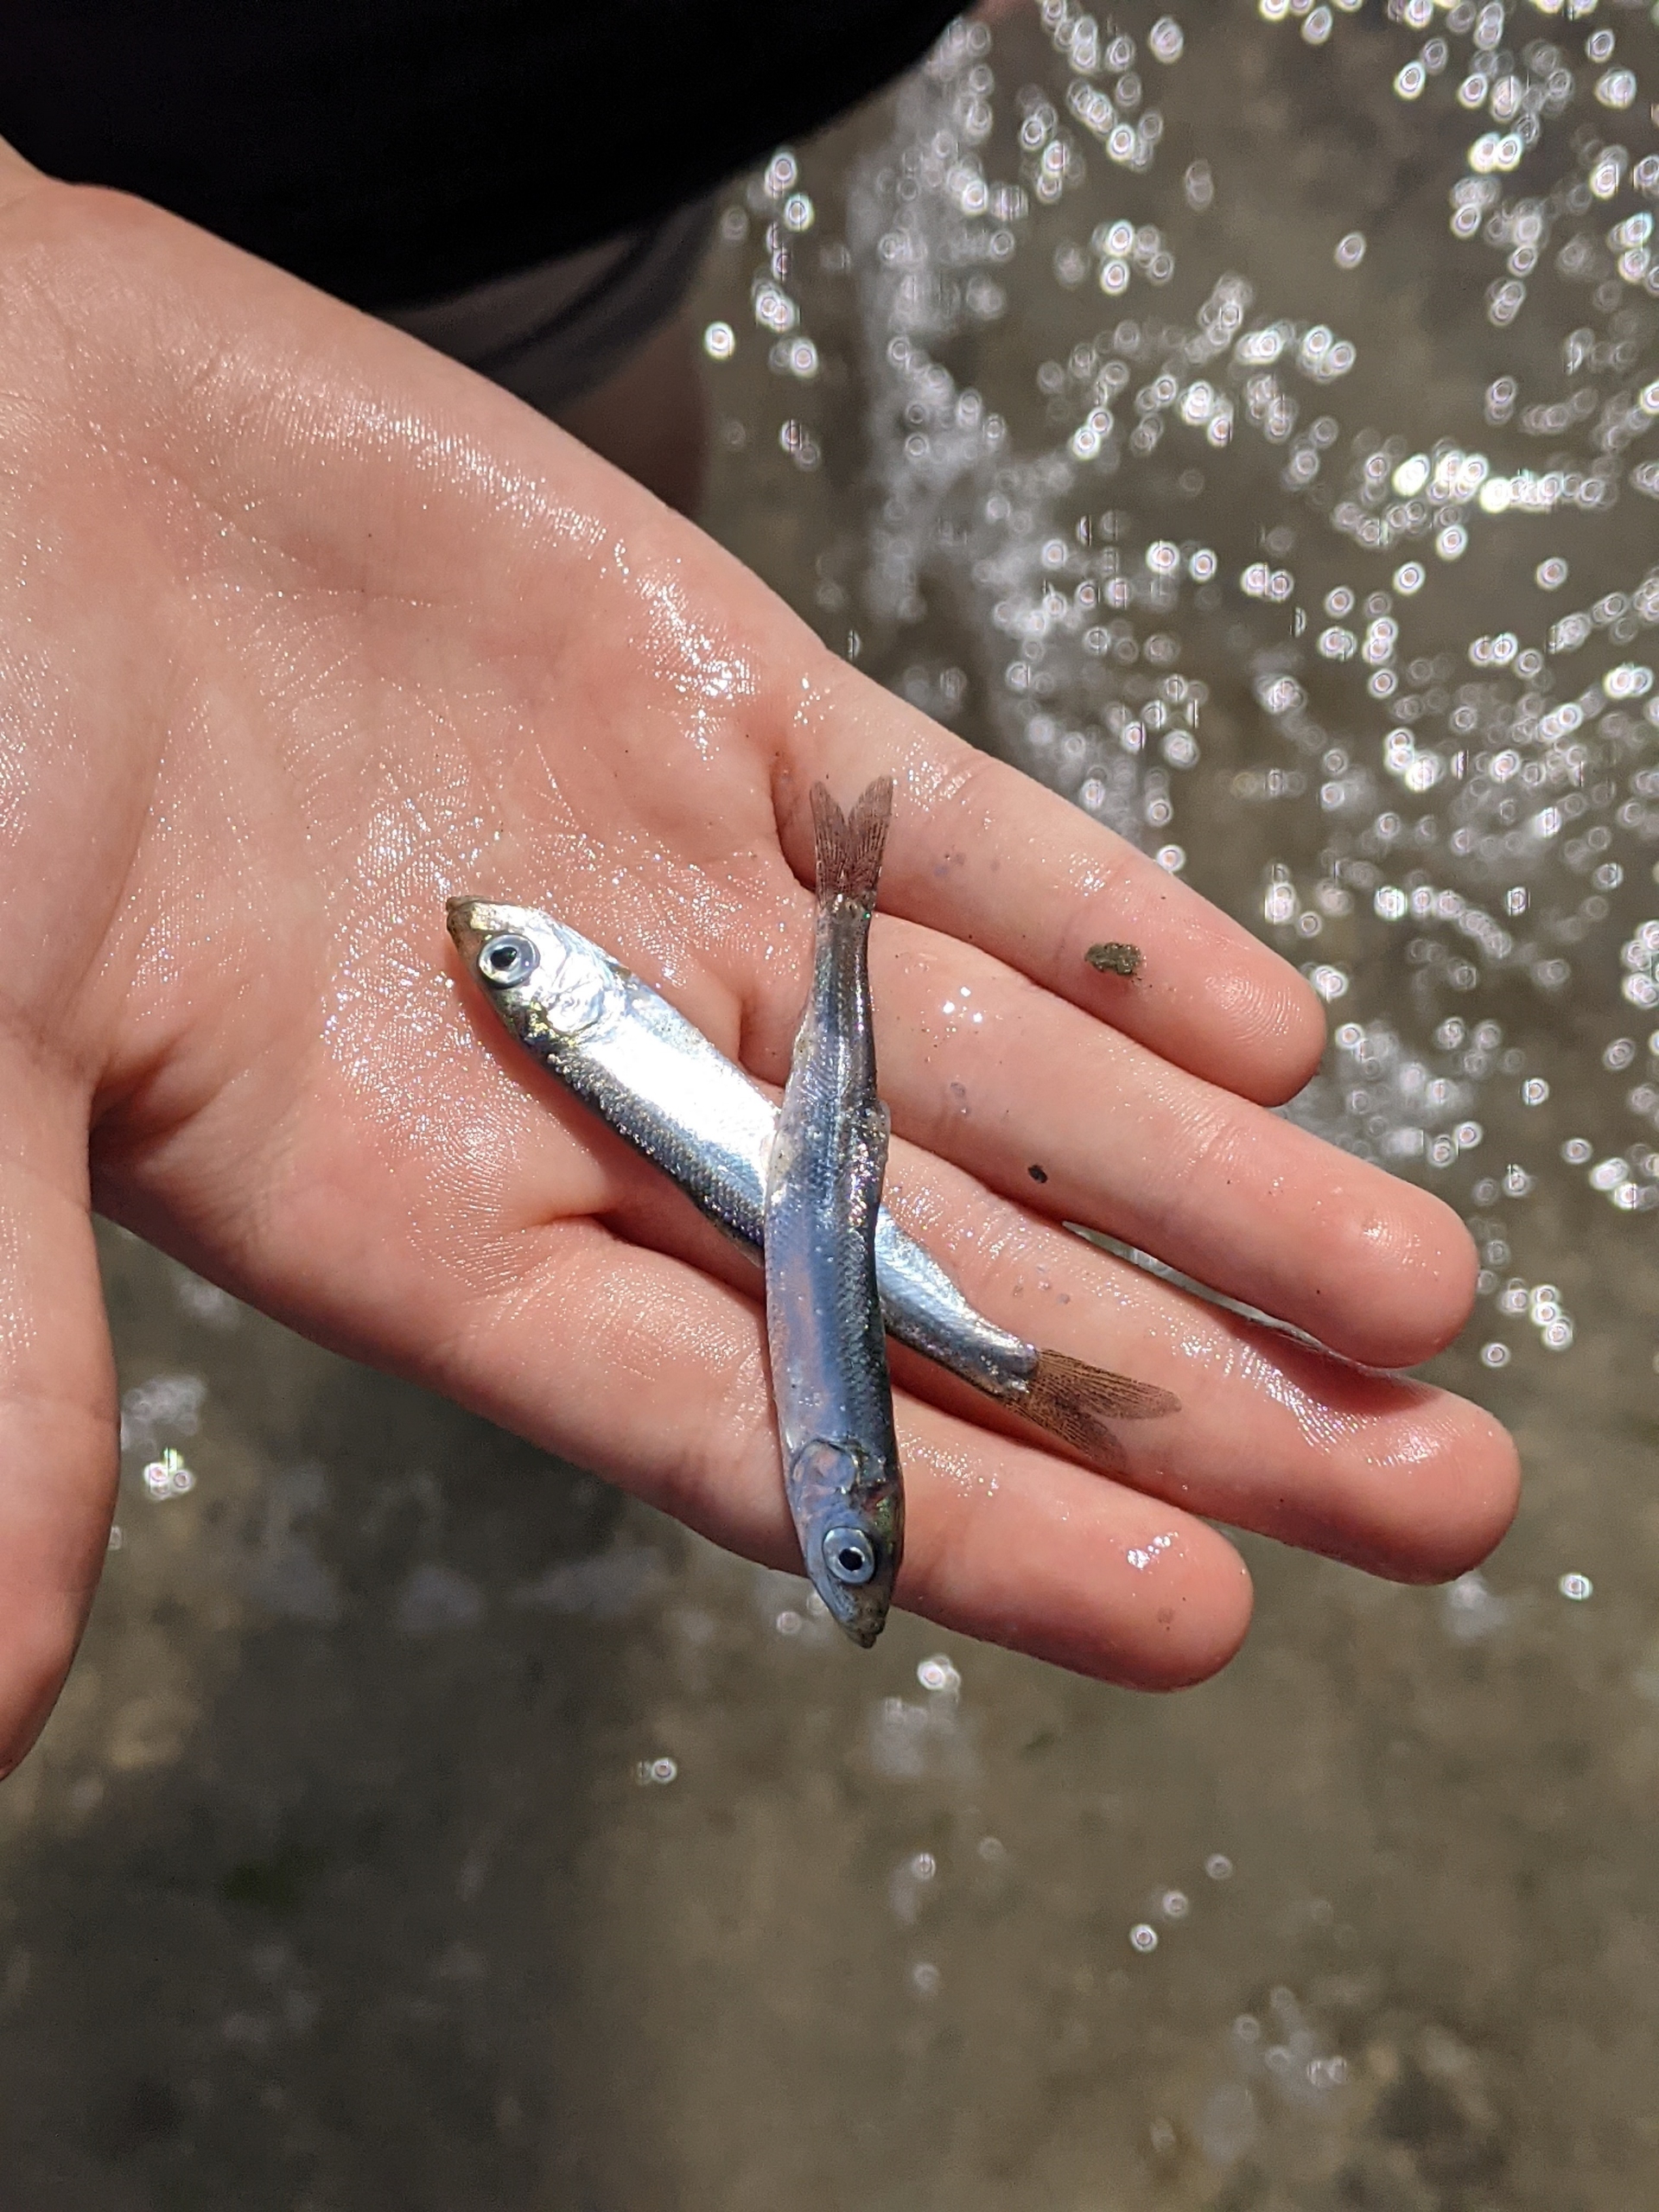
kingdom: Animalia
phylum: Chordata
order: Clupeiformes
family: Clupeidae
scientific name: Clupeidae
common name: Sildefamilien
